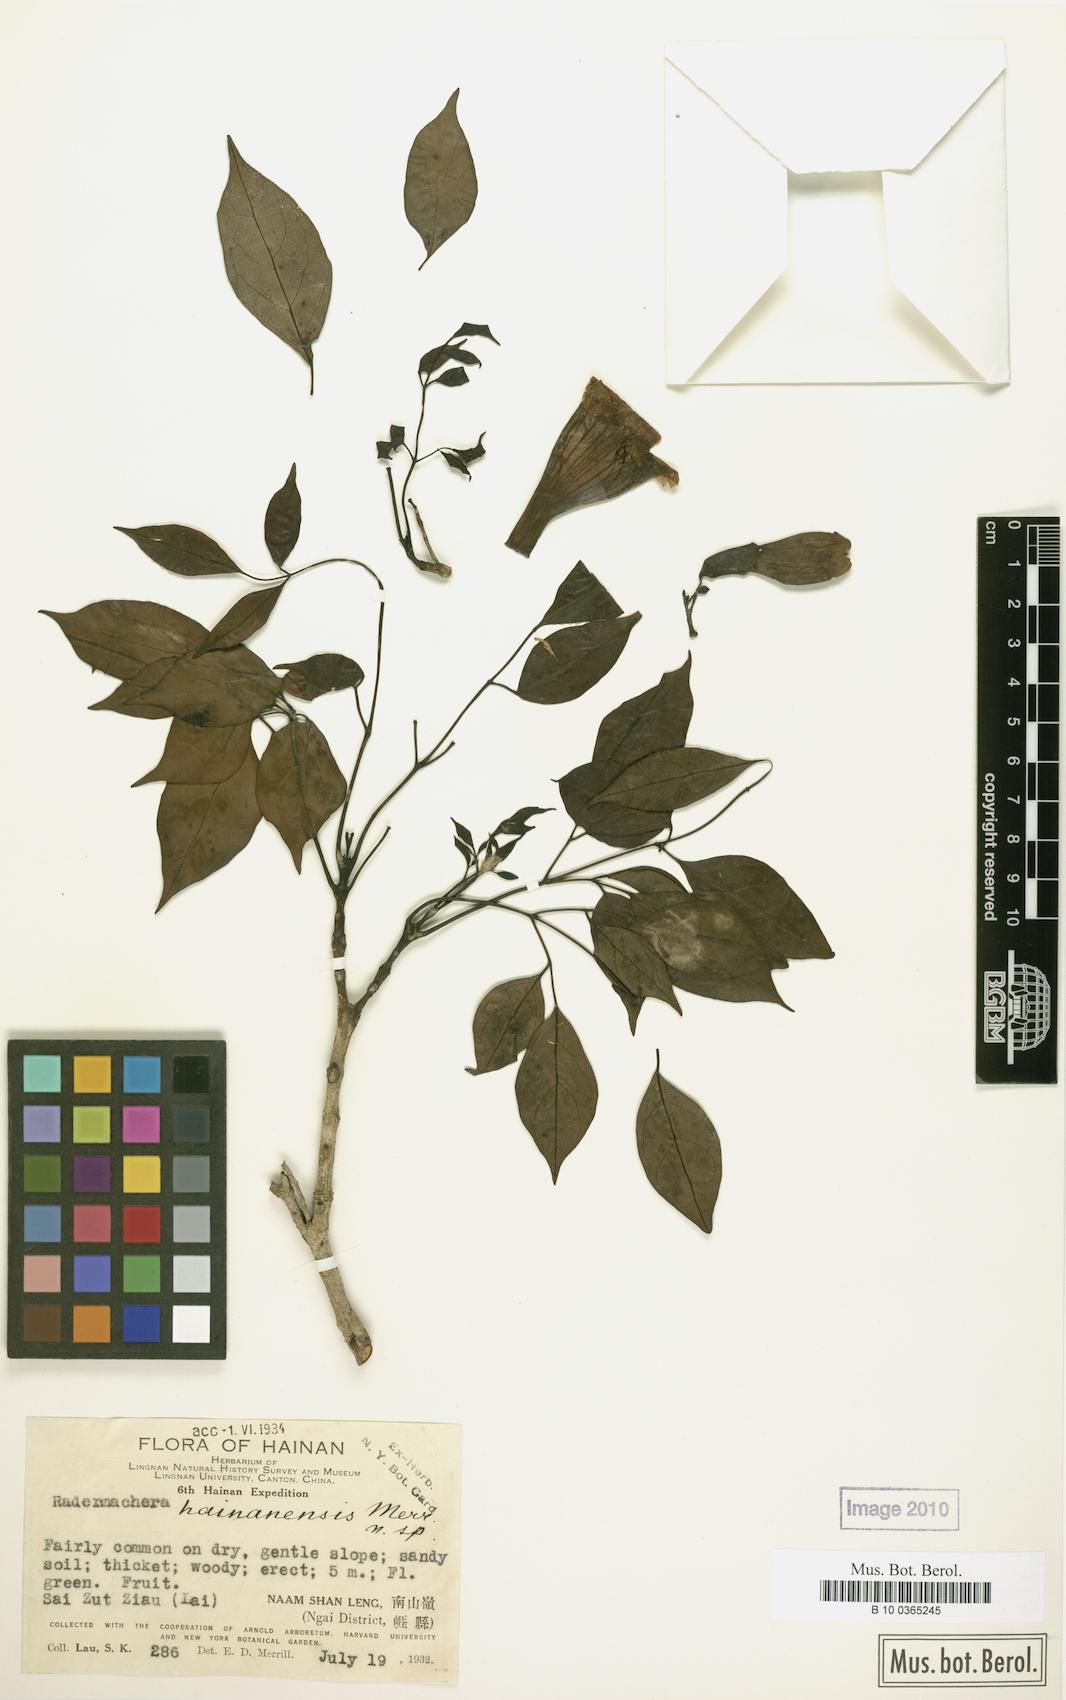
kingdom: Plantae
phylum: Tracheophyta
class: Magnoliopsida
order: Lamiales
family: Bignoniaceae
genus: Radermachera
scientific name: Radermachera hainanensis
